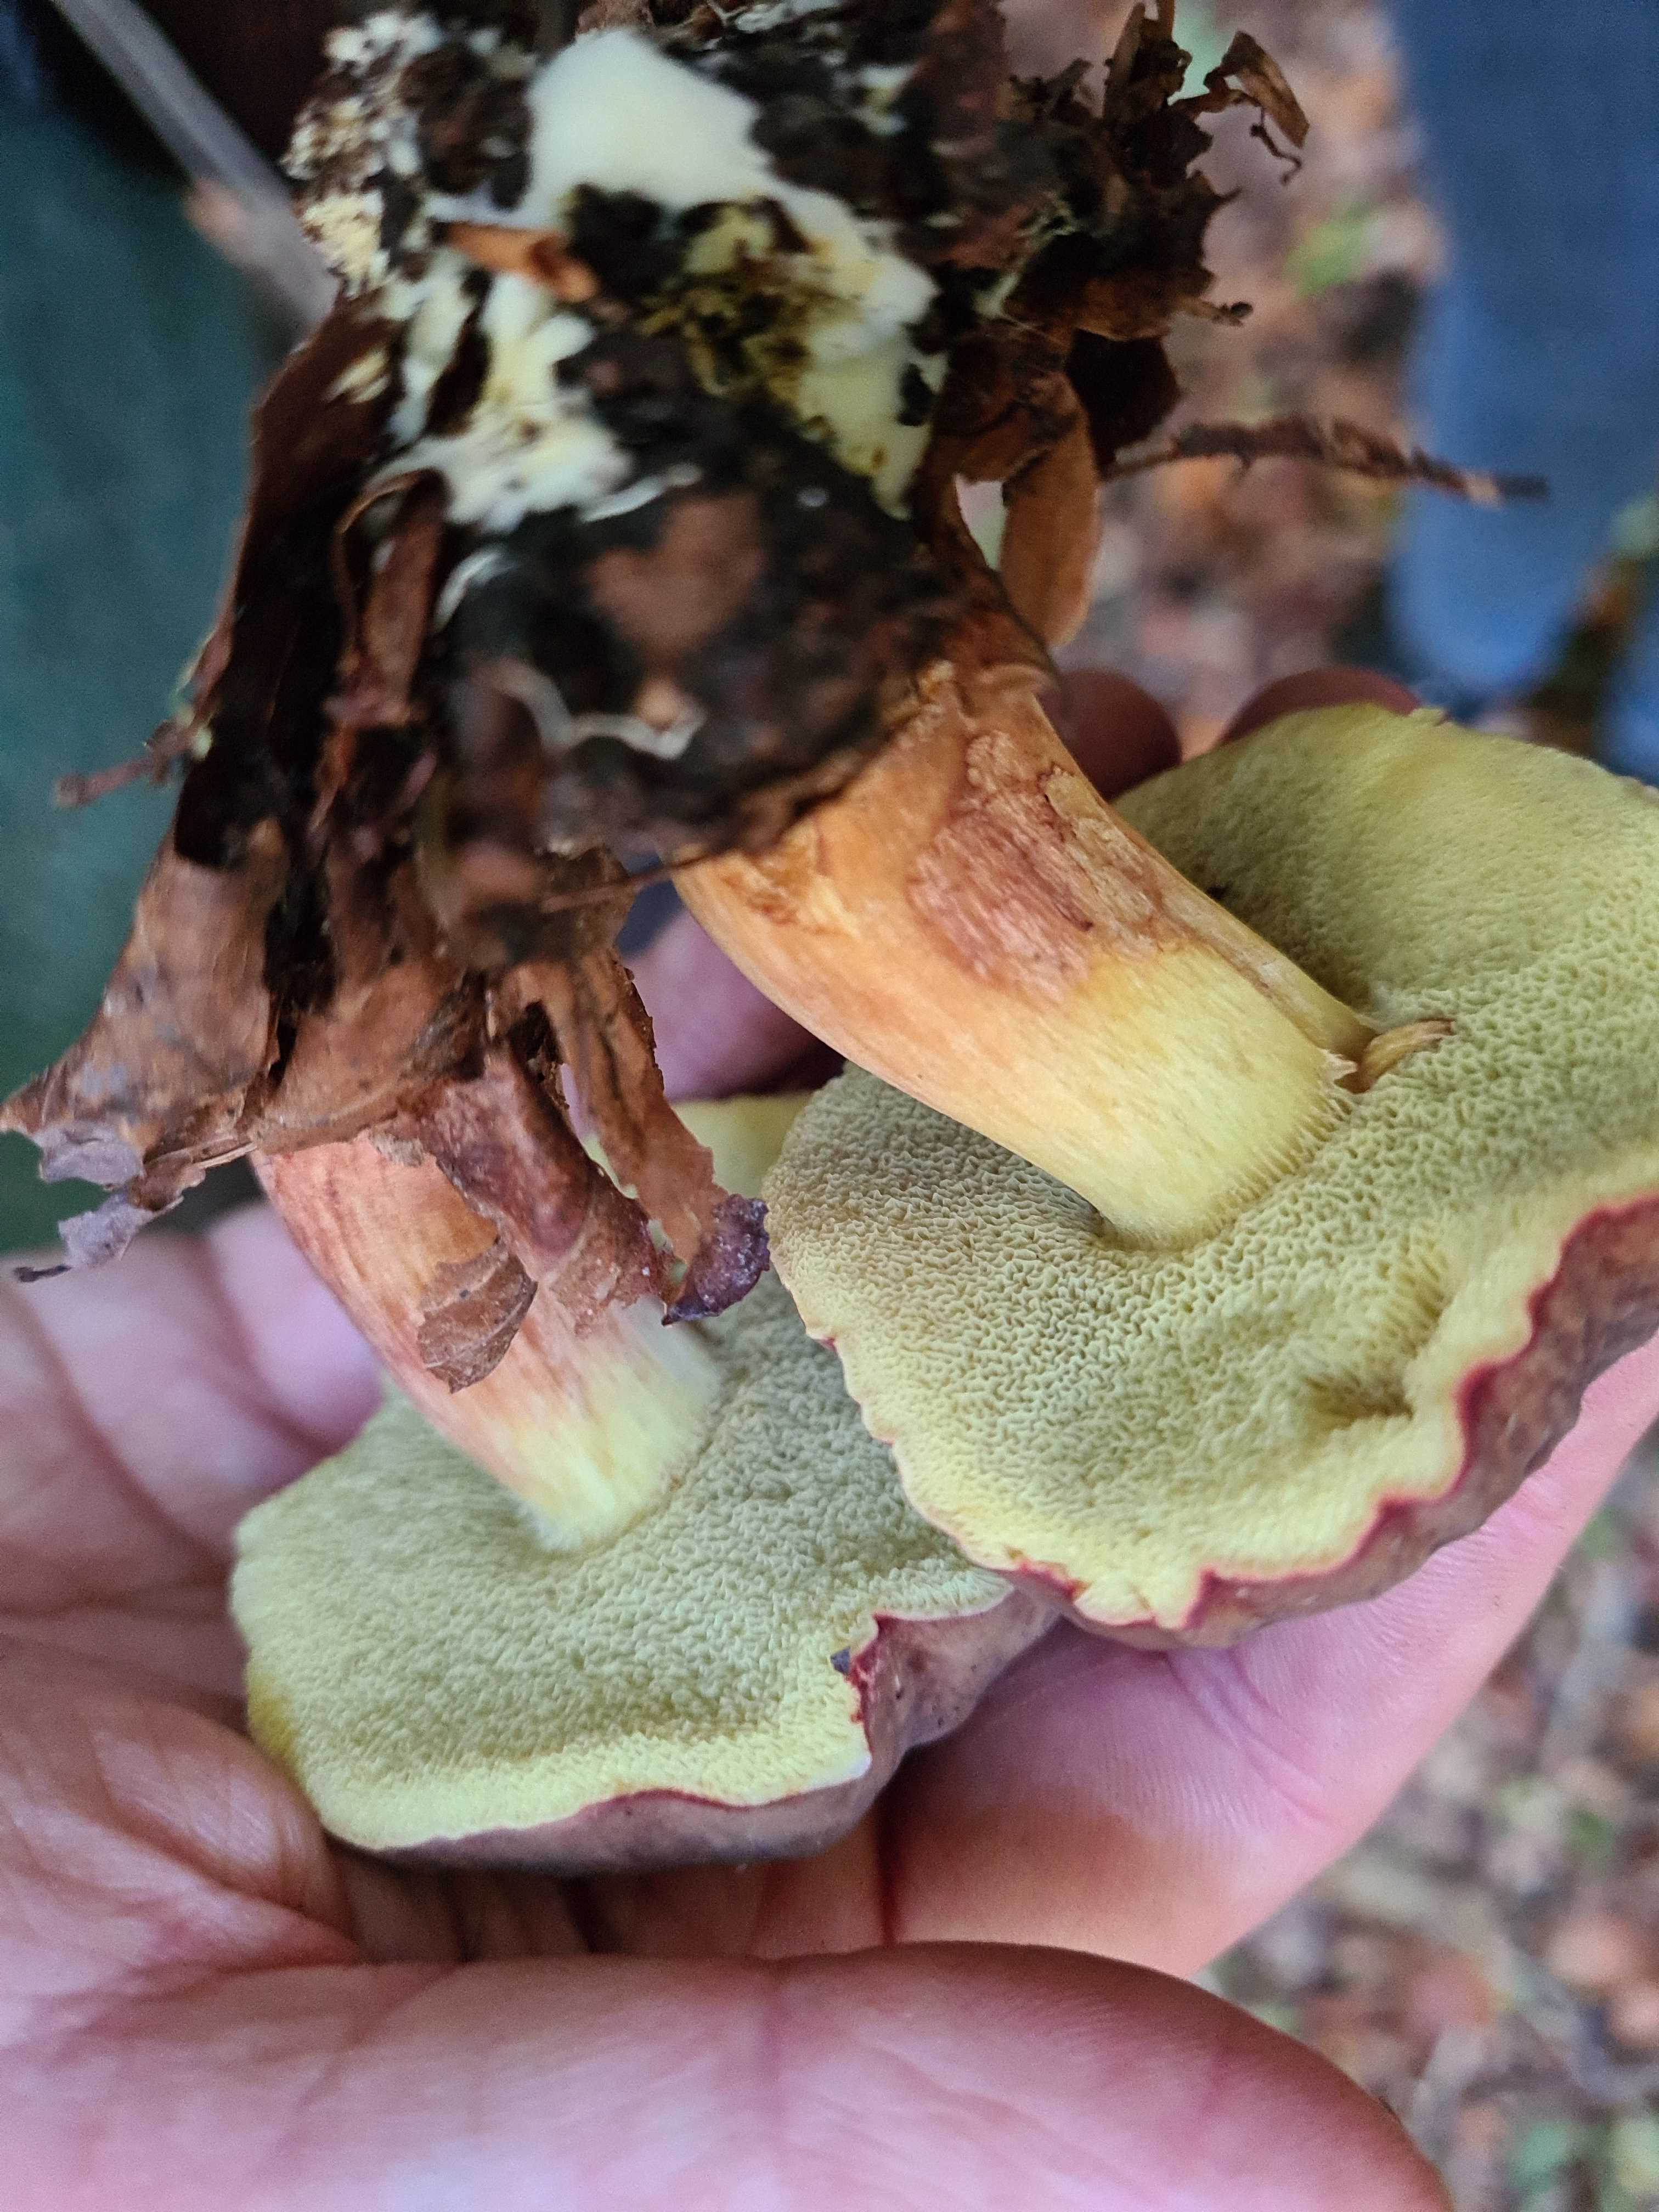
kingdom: Fungi
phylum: Basidiomycota
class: Agaricomycetes
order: Boletales
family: Boletaceae
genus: Xerocomellus
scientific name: Xerocomellus pruinatus
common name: dugget rørhat
